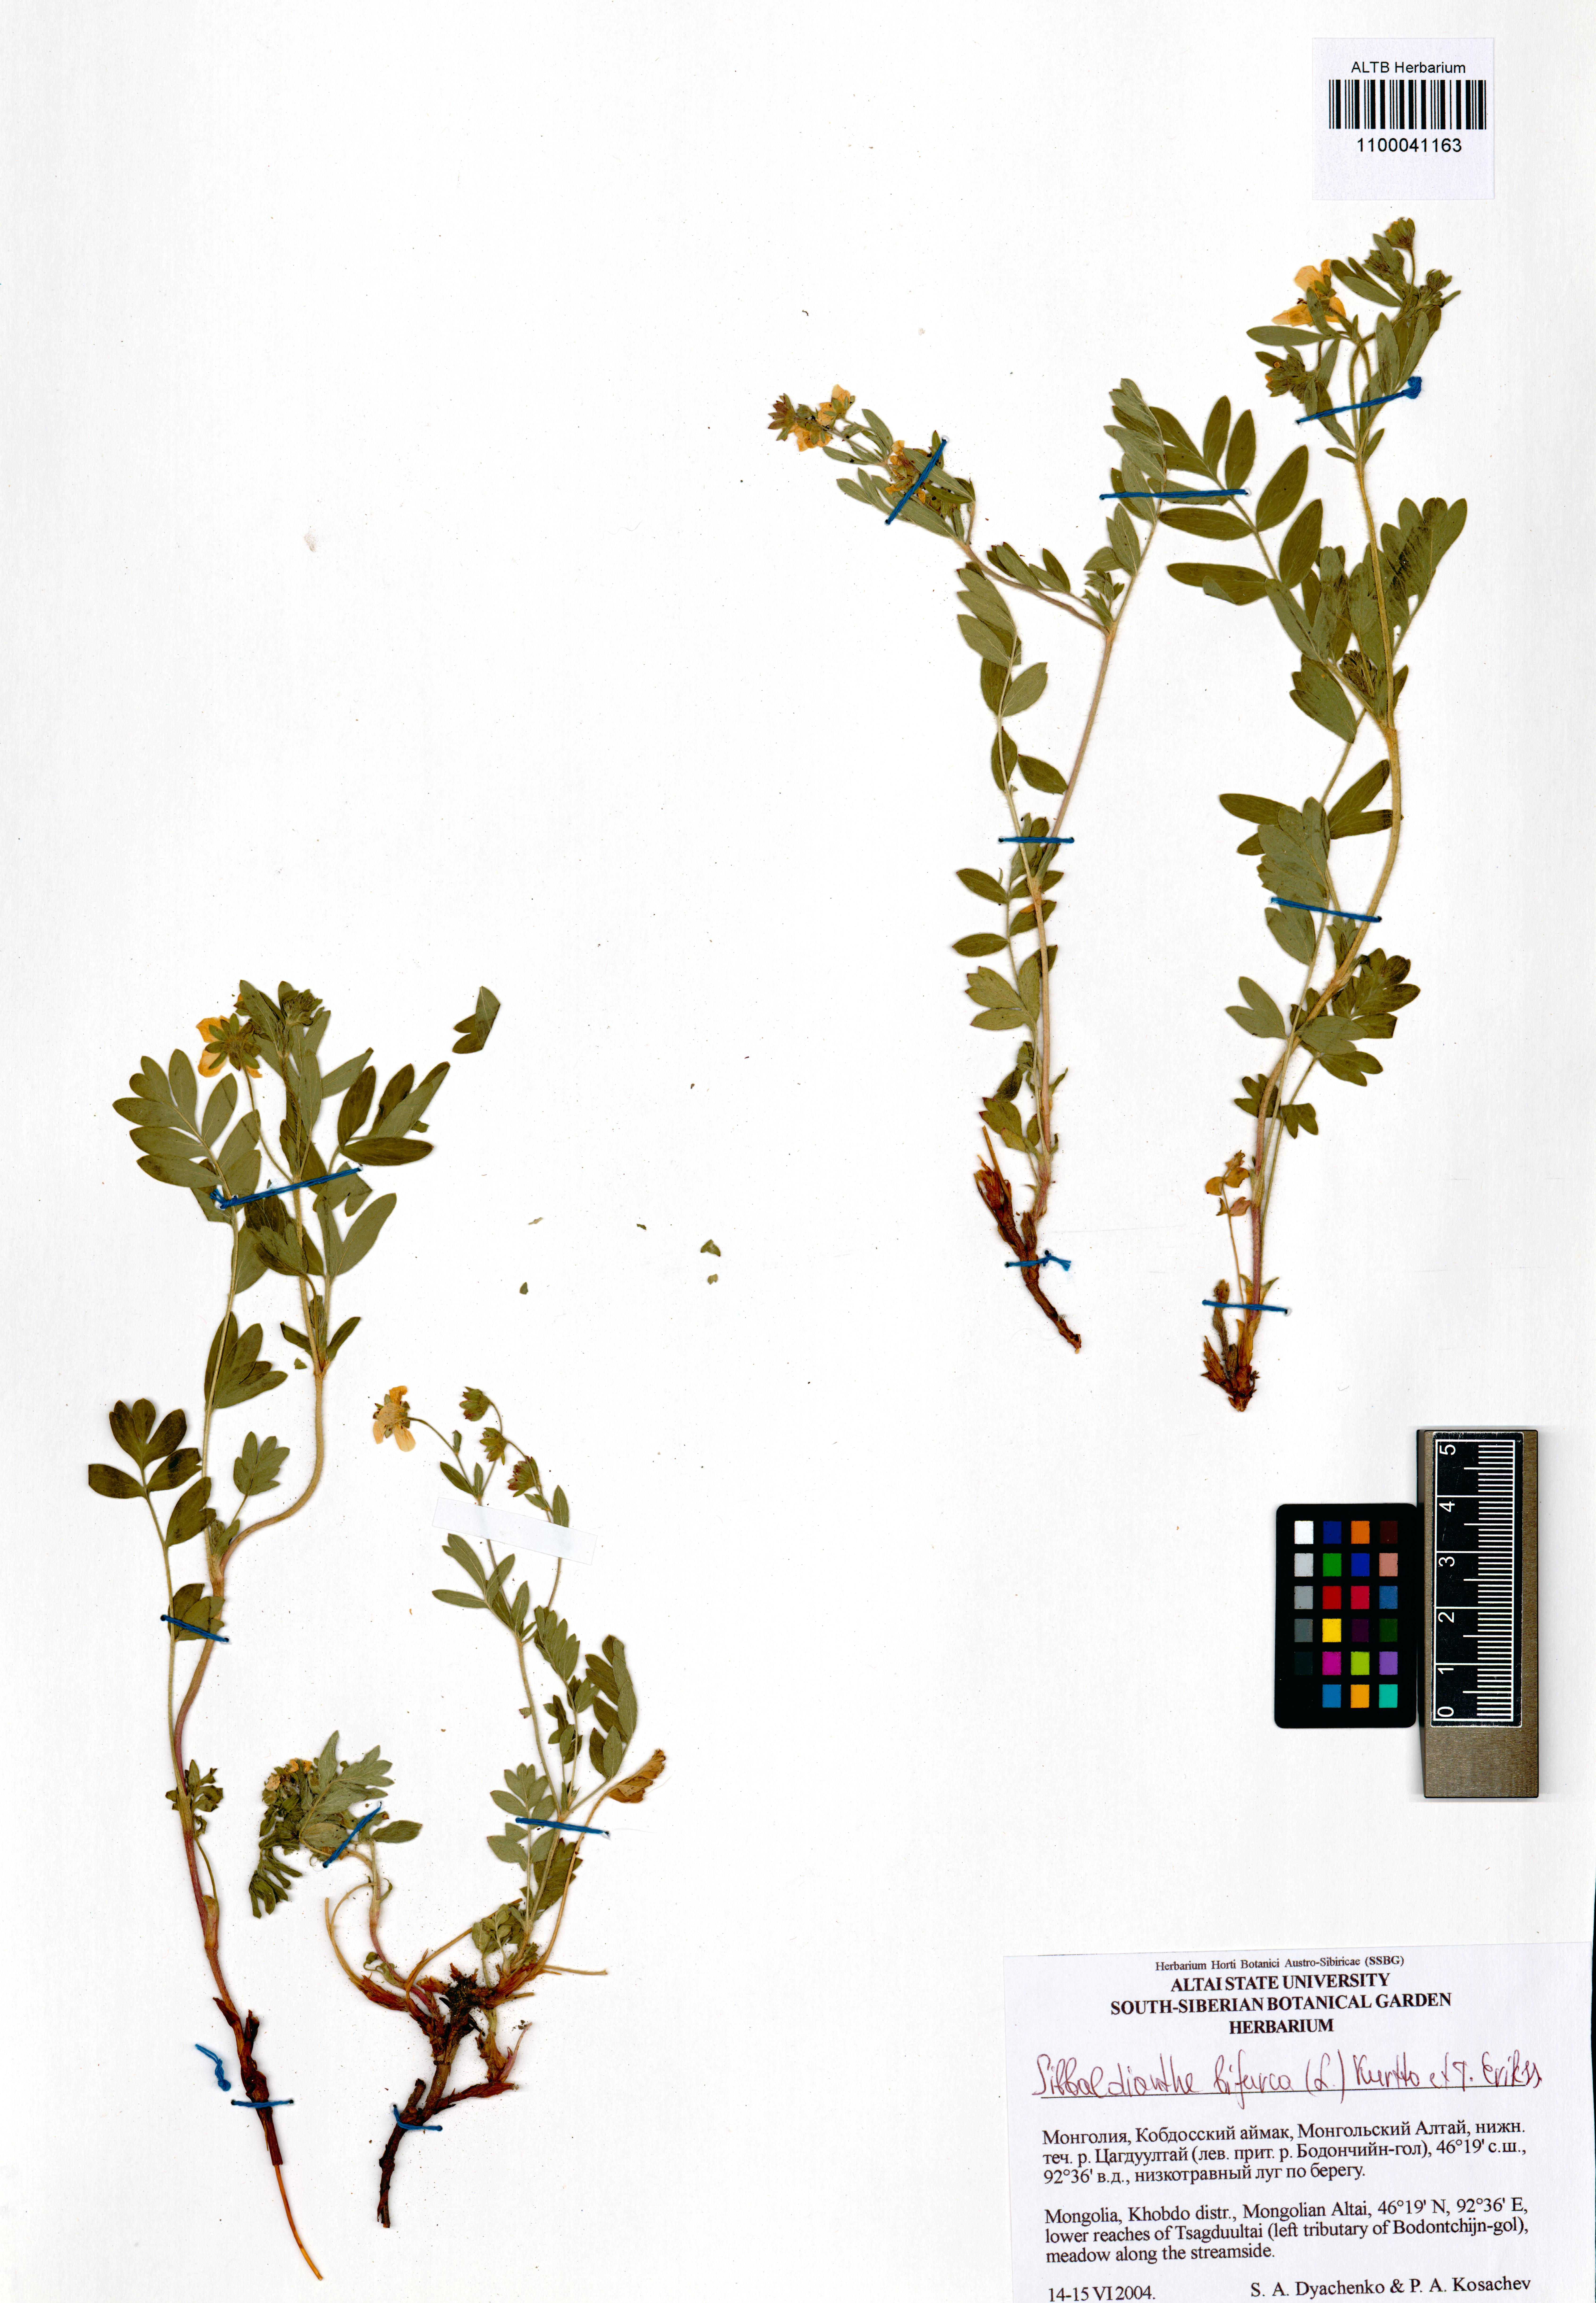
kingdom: Plantae
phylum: Tracheophyta
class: Magnoliopsida
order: Rosales
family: Rosaceae
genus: Sibbaldianthe
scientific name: Sibbaldianthe bifurca
